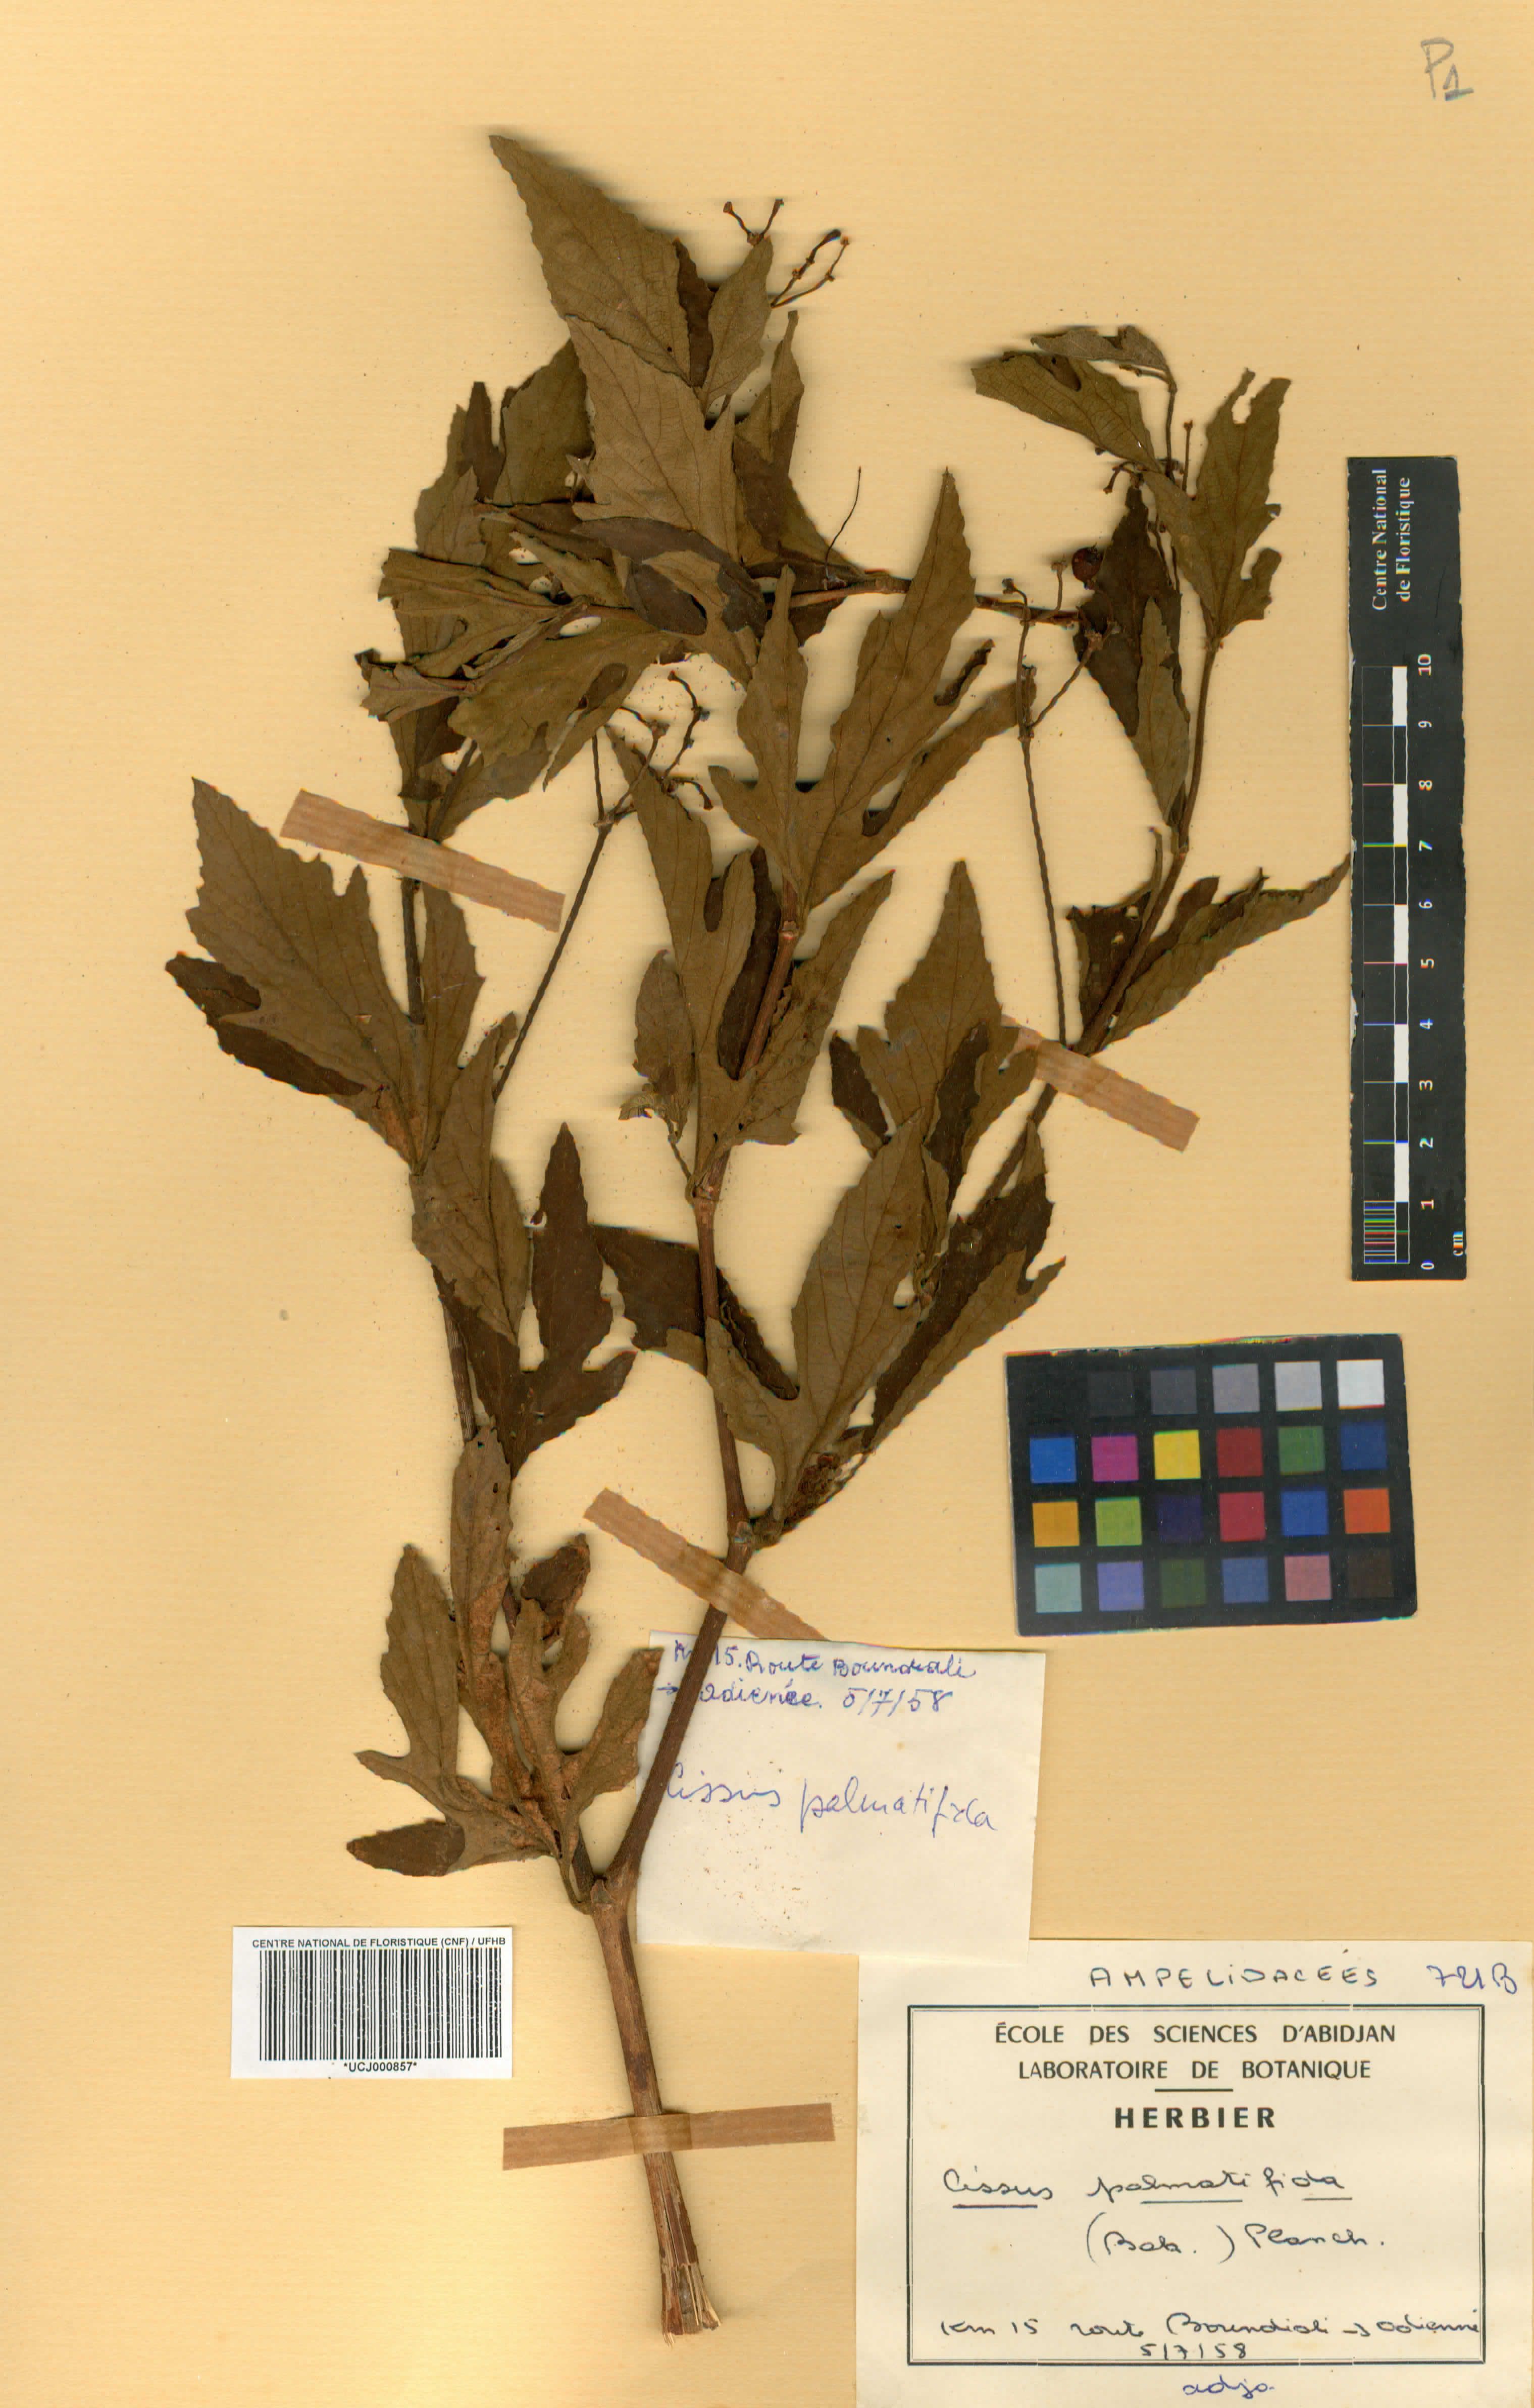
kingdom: Plantae
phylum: Tracheophyta
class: Magnoliopsida
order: Vitales
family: Vitaceae
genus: Cissus
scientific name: Cissus palmatifida
